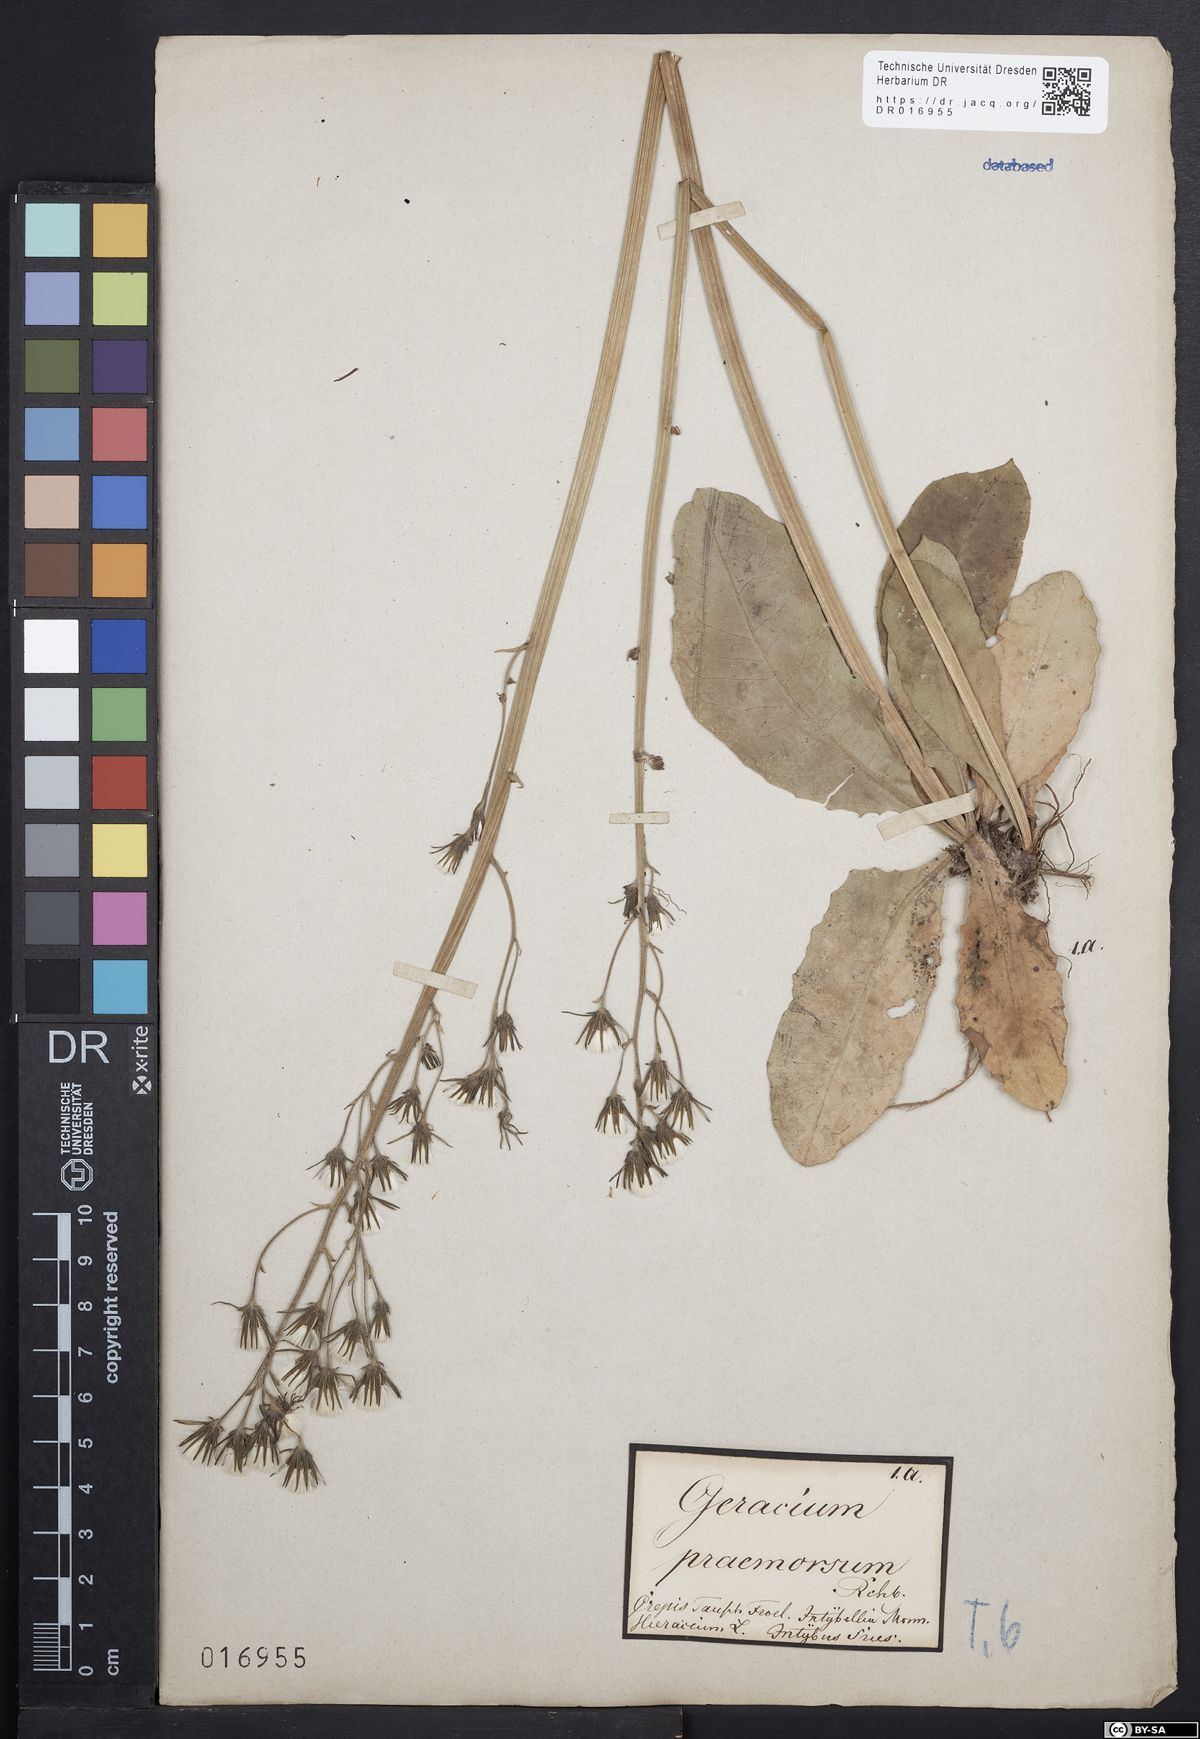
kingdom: Plantae
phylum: Tracheophyta
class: Magnoliopsida
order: Asterales
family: Asteraceae
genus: Crepis
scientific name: Crepis praemorsa
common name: Leafless hawk's-beard
